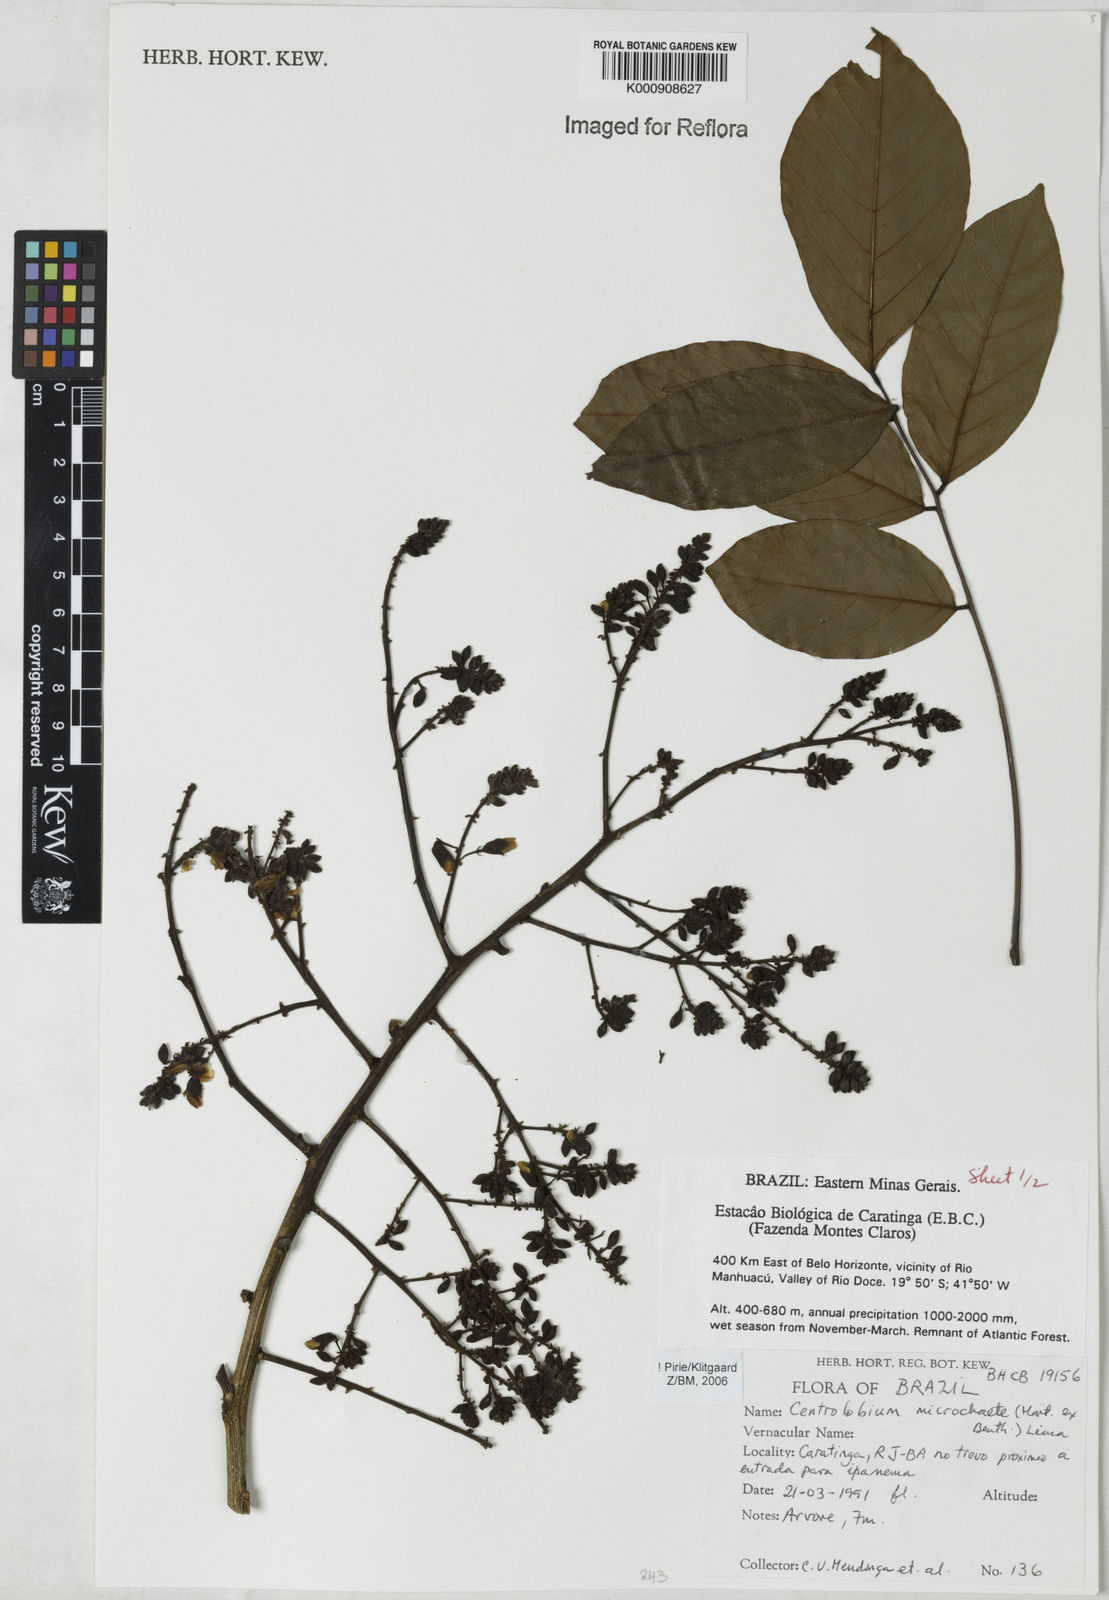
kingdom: Plantae
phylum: Tracheophyta
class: Magnoliopsida
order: Fabales
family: Fabaceae
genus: Centrolobium
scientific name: Centrolobium microchaete
